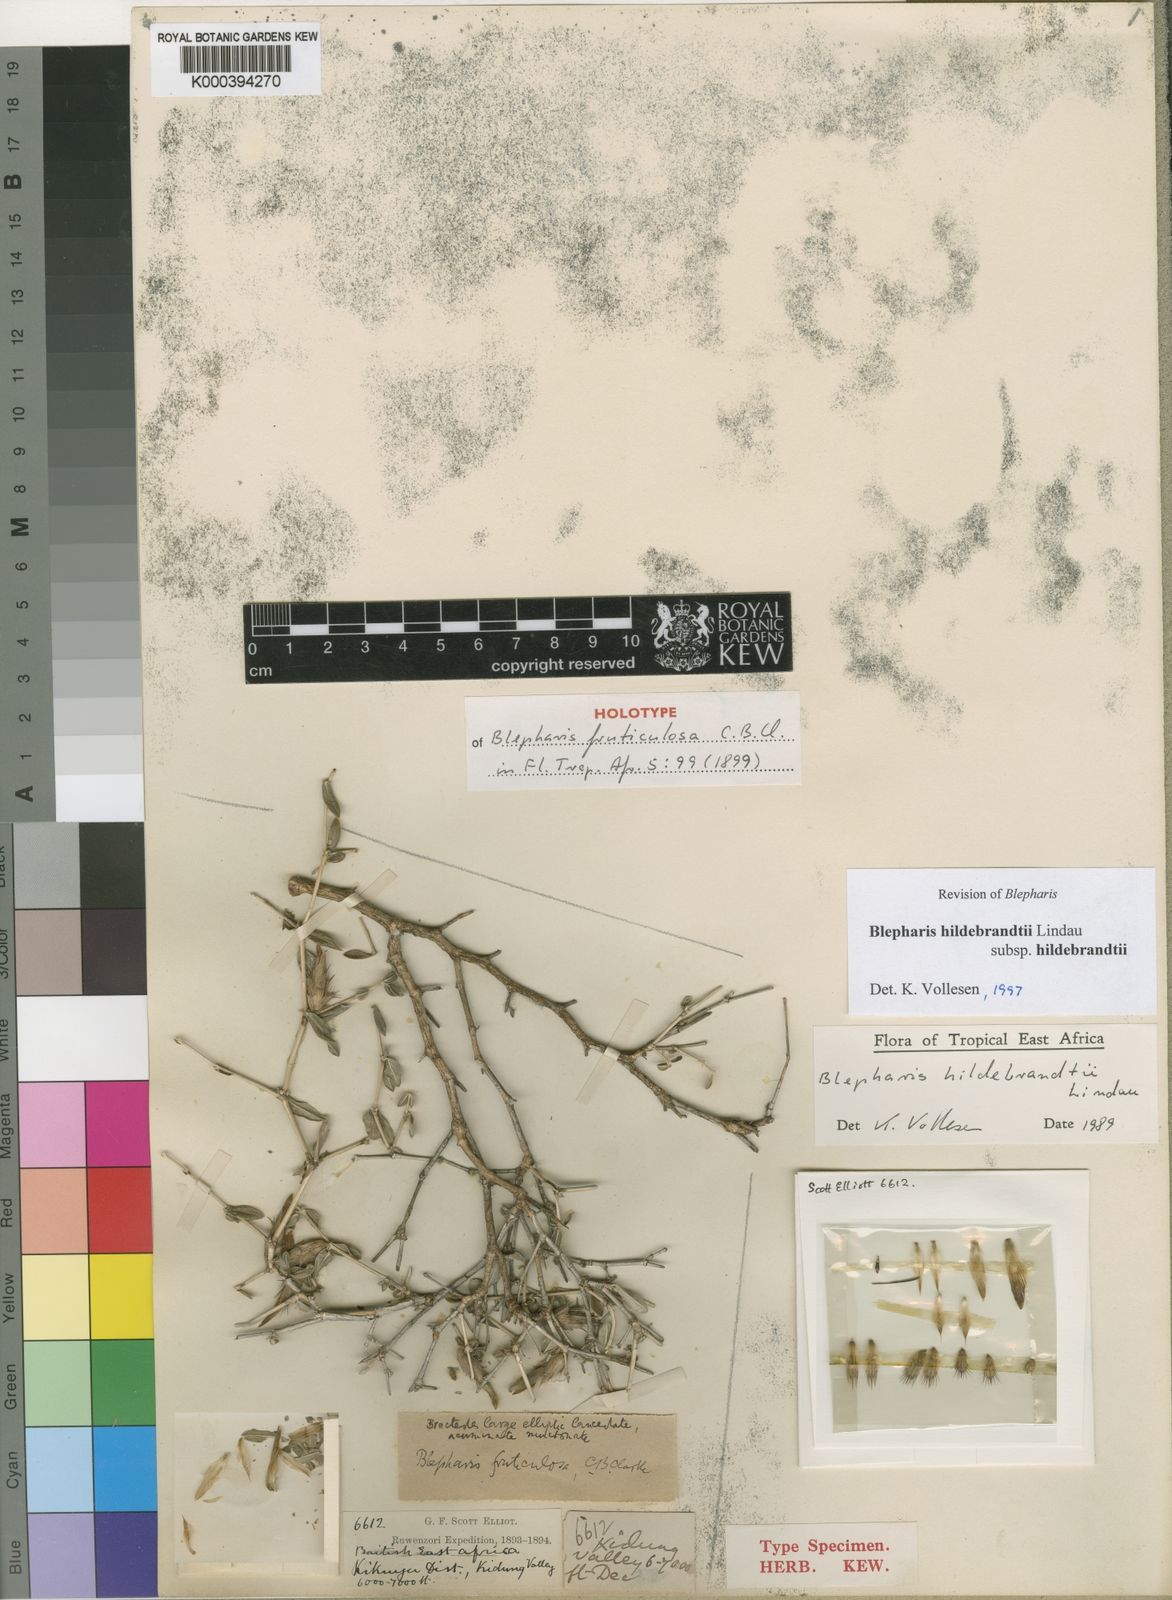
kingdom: Plantae
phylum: Tracheophyta
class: Magnoliopsida
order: Lamiales
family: Acanthaceae
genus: Blepharis
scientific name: Blepharis hildebrandtii
